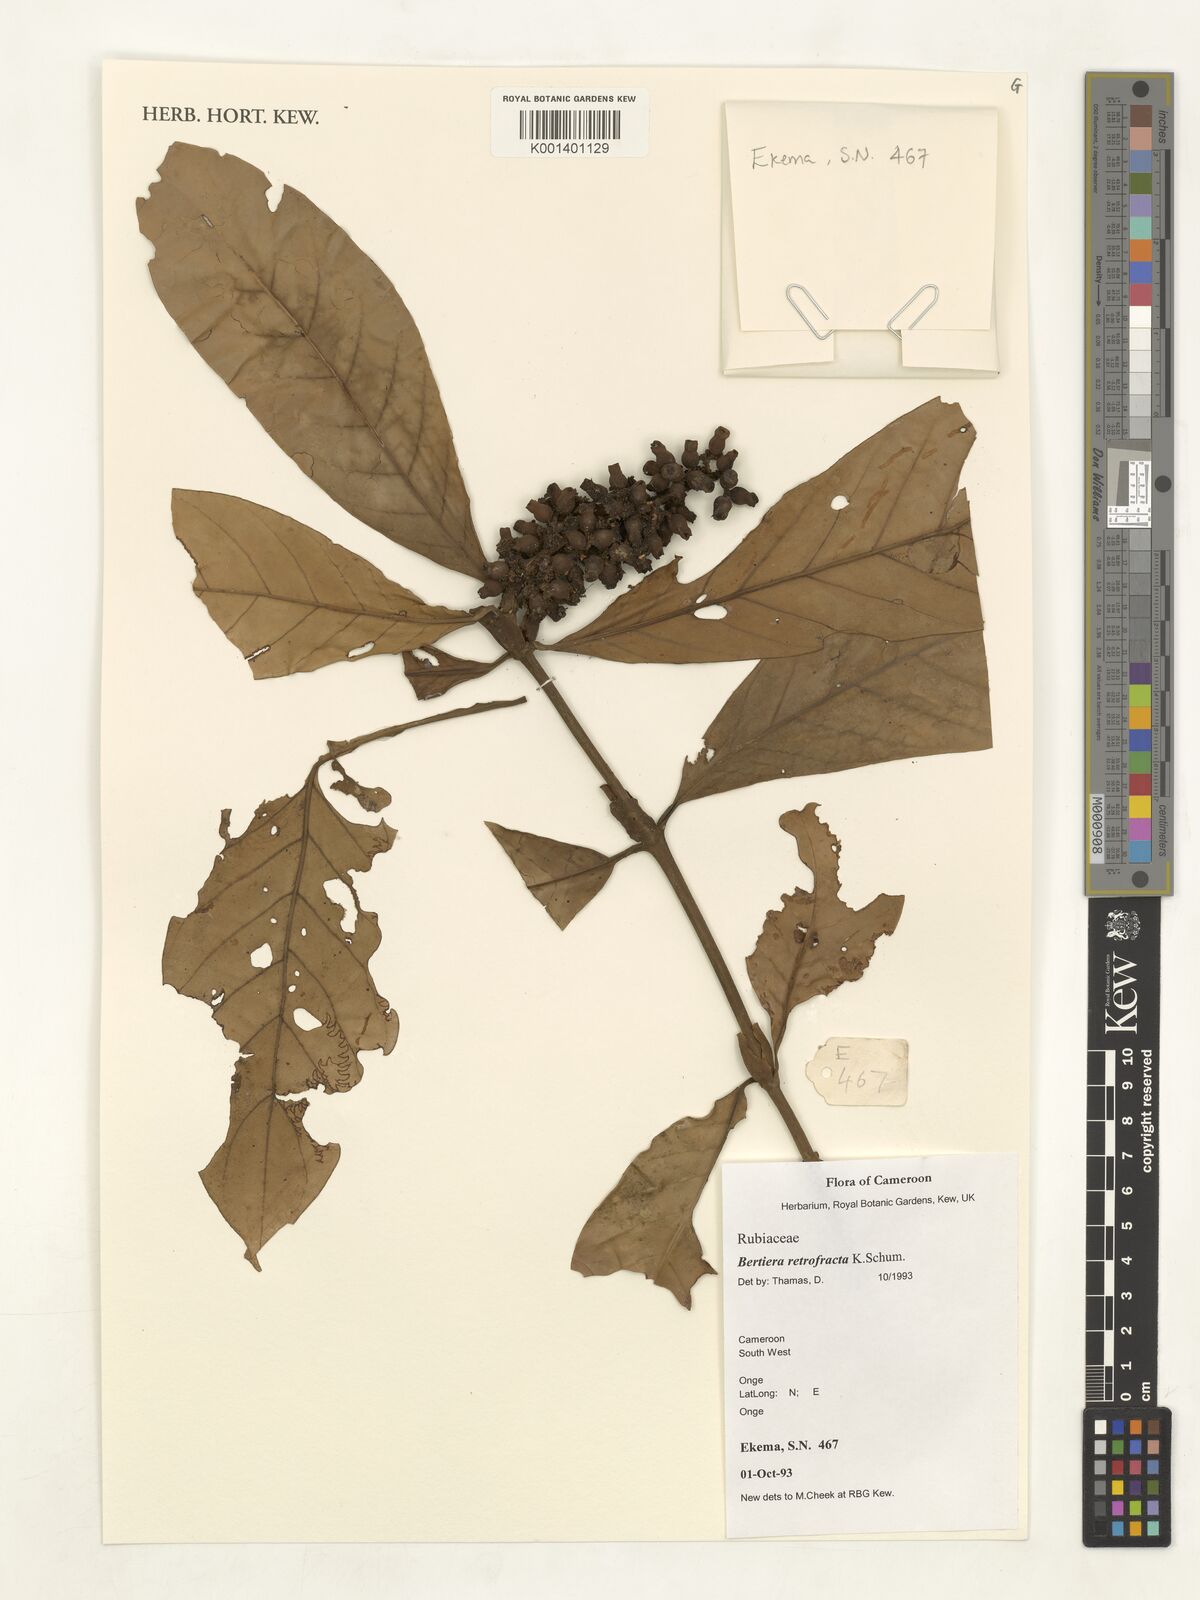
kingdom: Plantae
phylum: Tracheophyta
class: Magnoliopsida
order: Gentianales
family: Rubiaceae
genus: Bertiera
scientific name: Bertiera retrofracta
